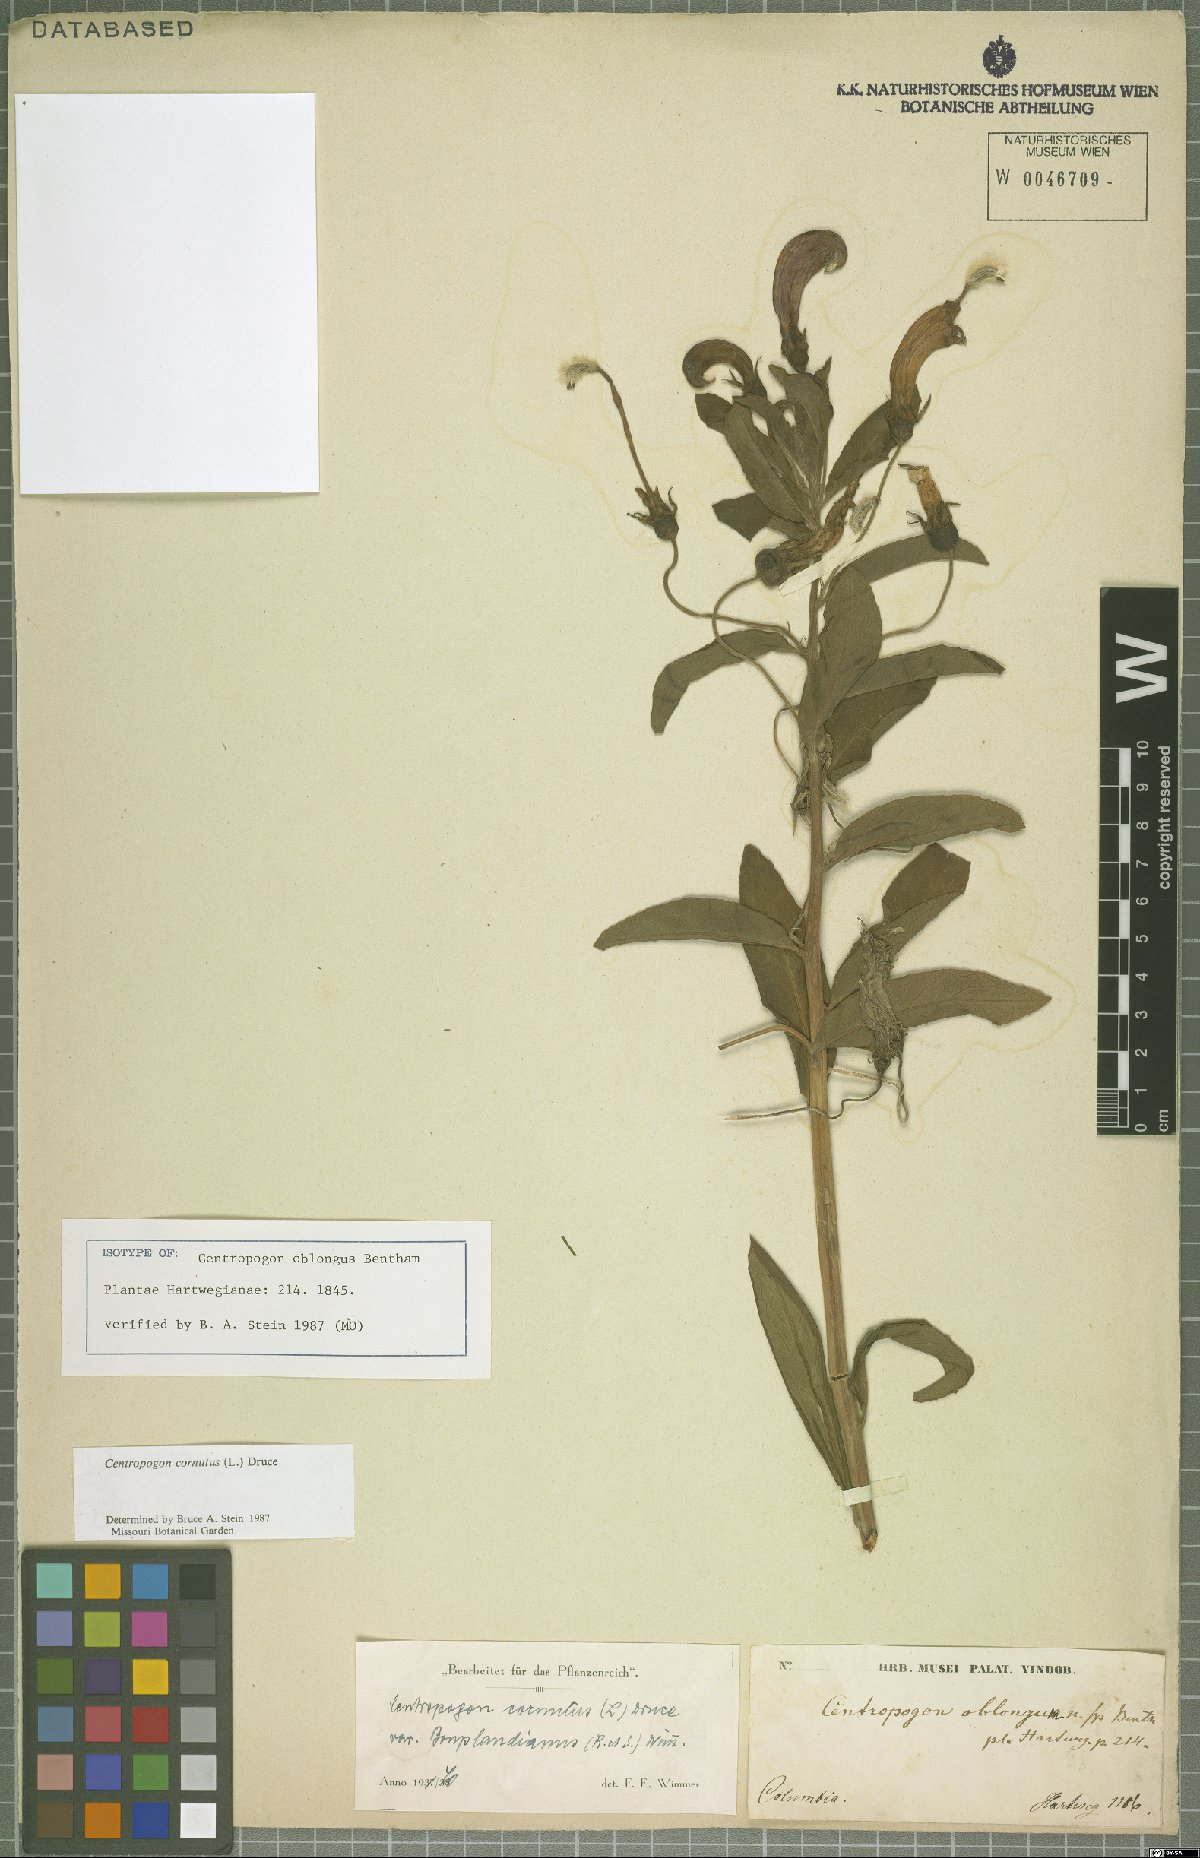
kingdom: Plantae
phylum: Tracheophyta
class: Magnoliopsida
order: Asterales
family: Campanulaceae
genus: Centropogon
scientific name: Centropogon cornutus
